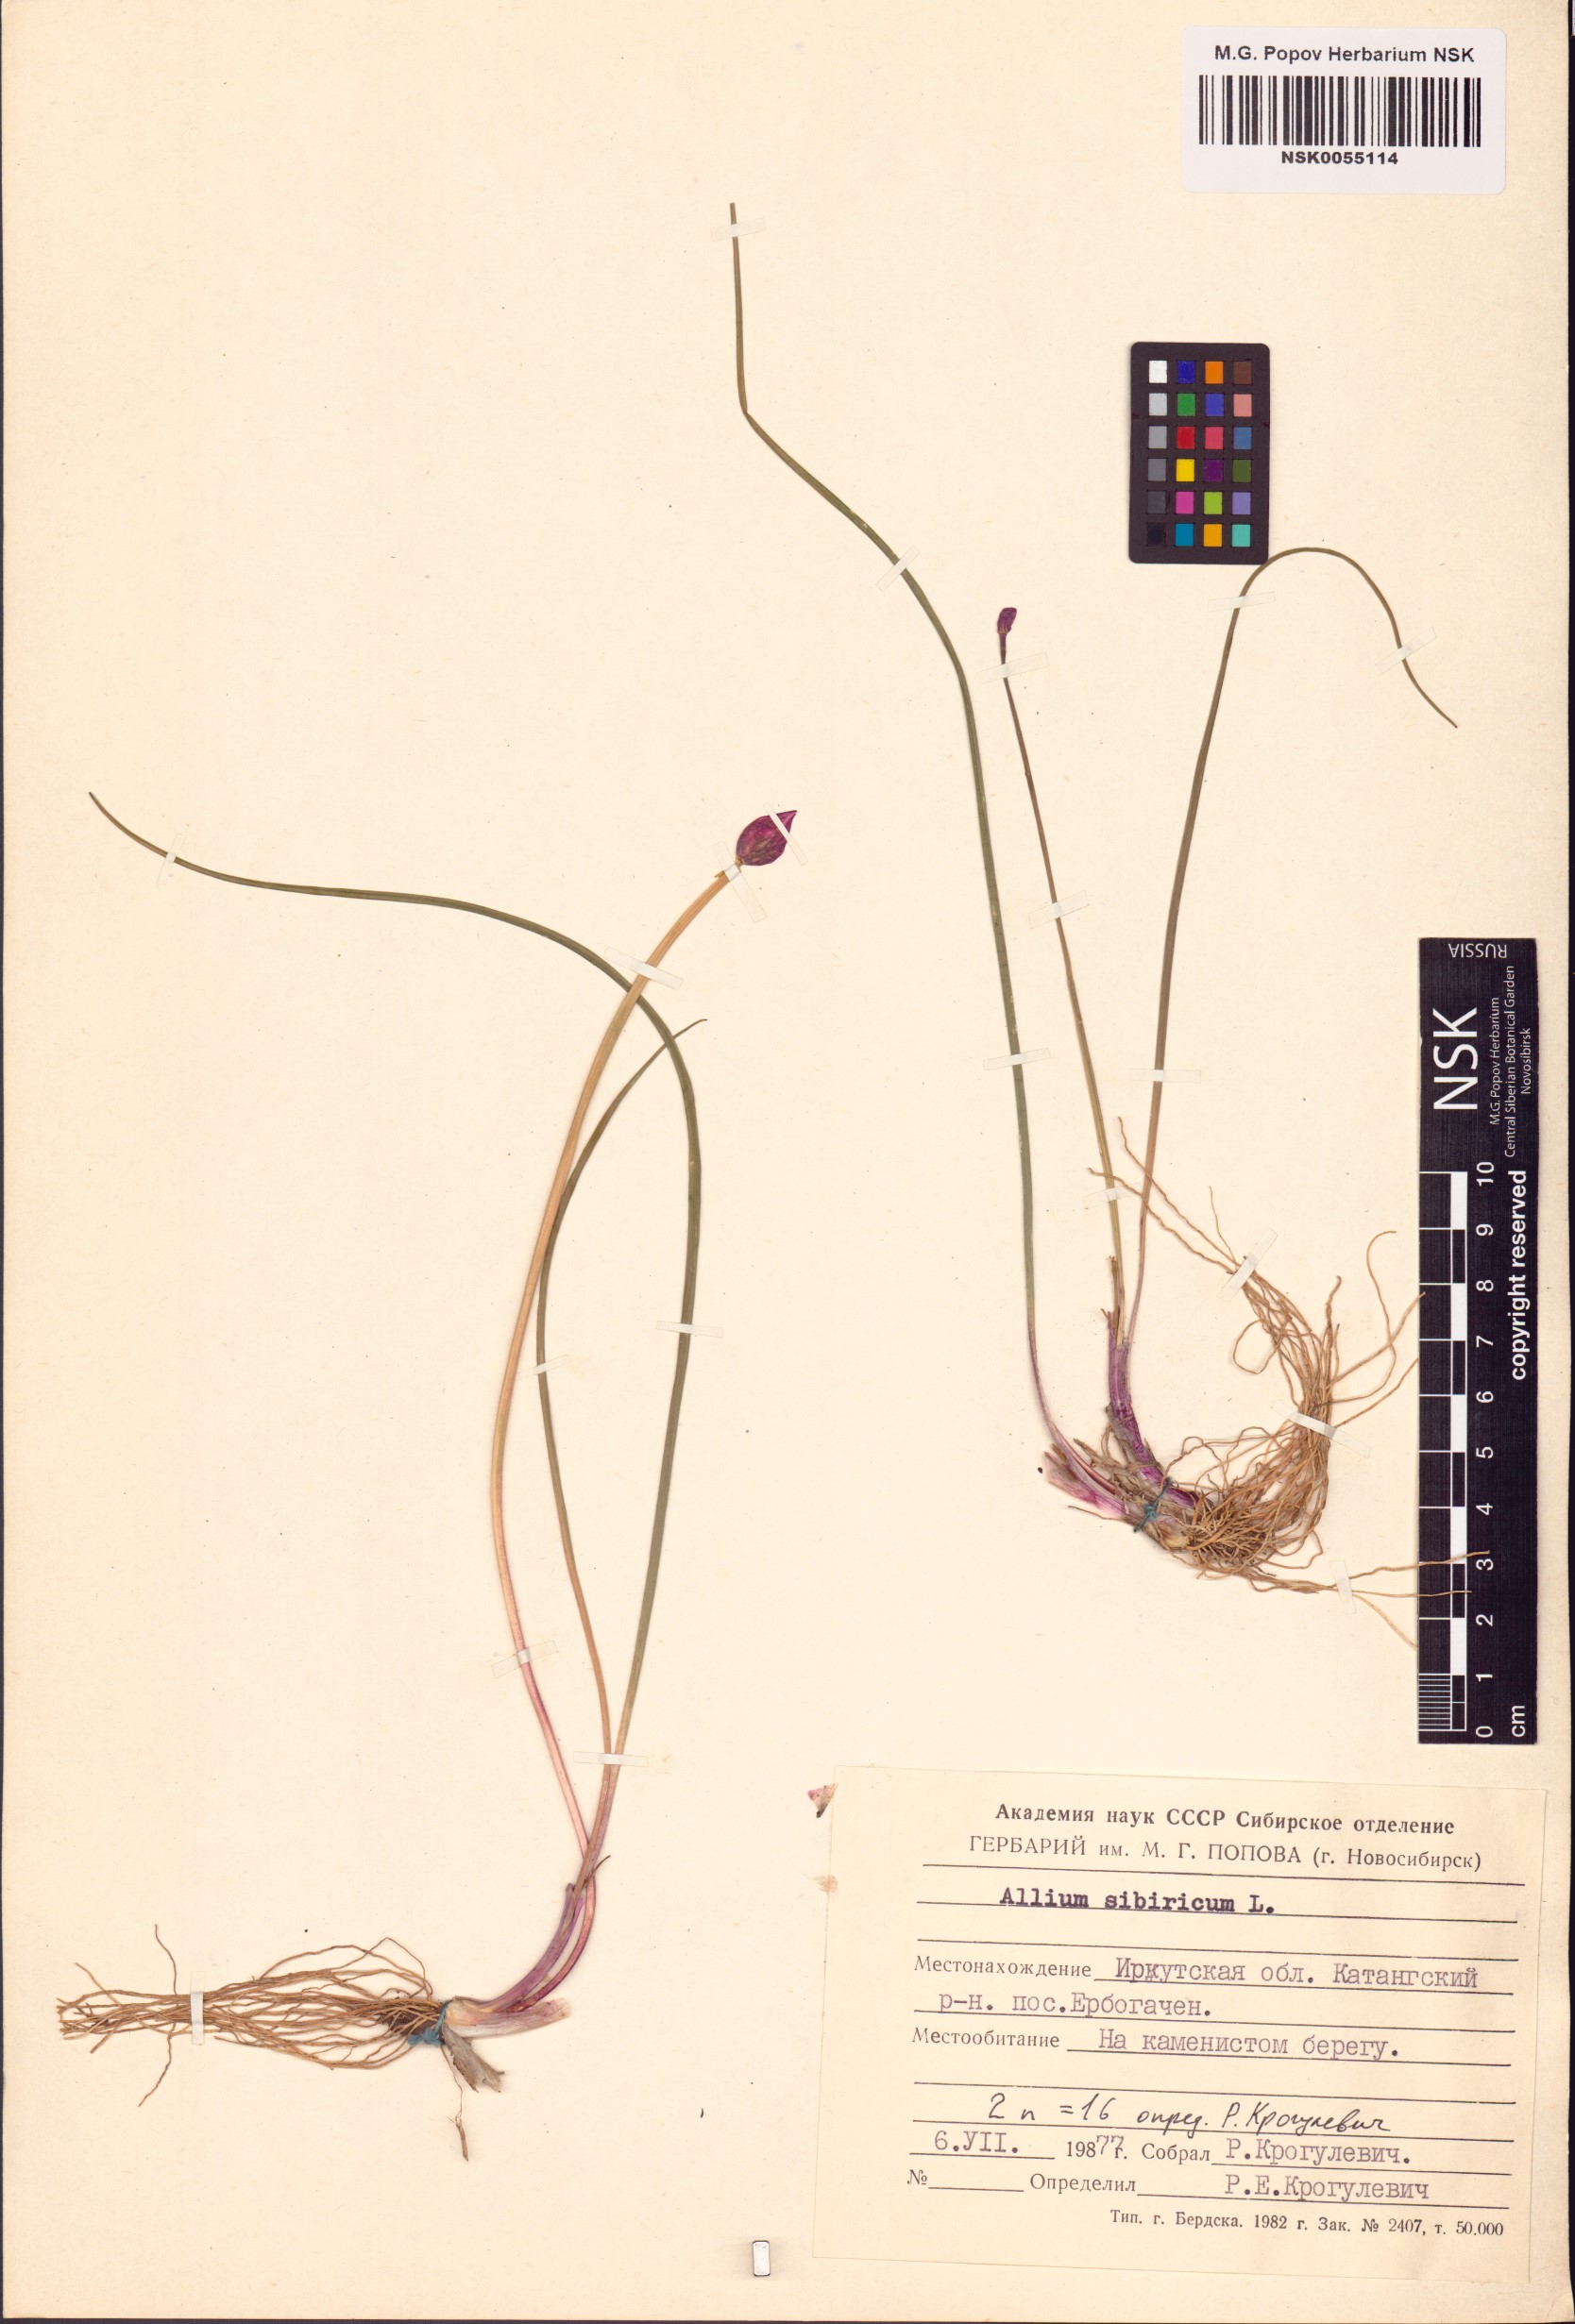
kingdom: Plantae
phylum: Tracheophyta
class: Liliopsida
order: Asparagales
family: Amaryllidaceae
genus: Allium
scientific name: Allium schoenoprasum
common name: Chives
